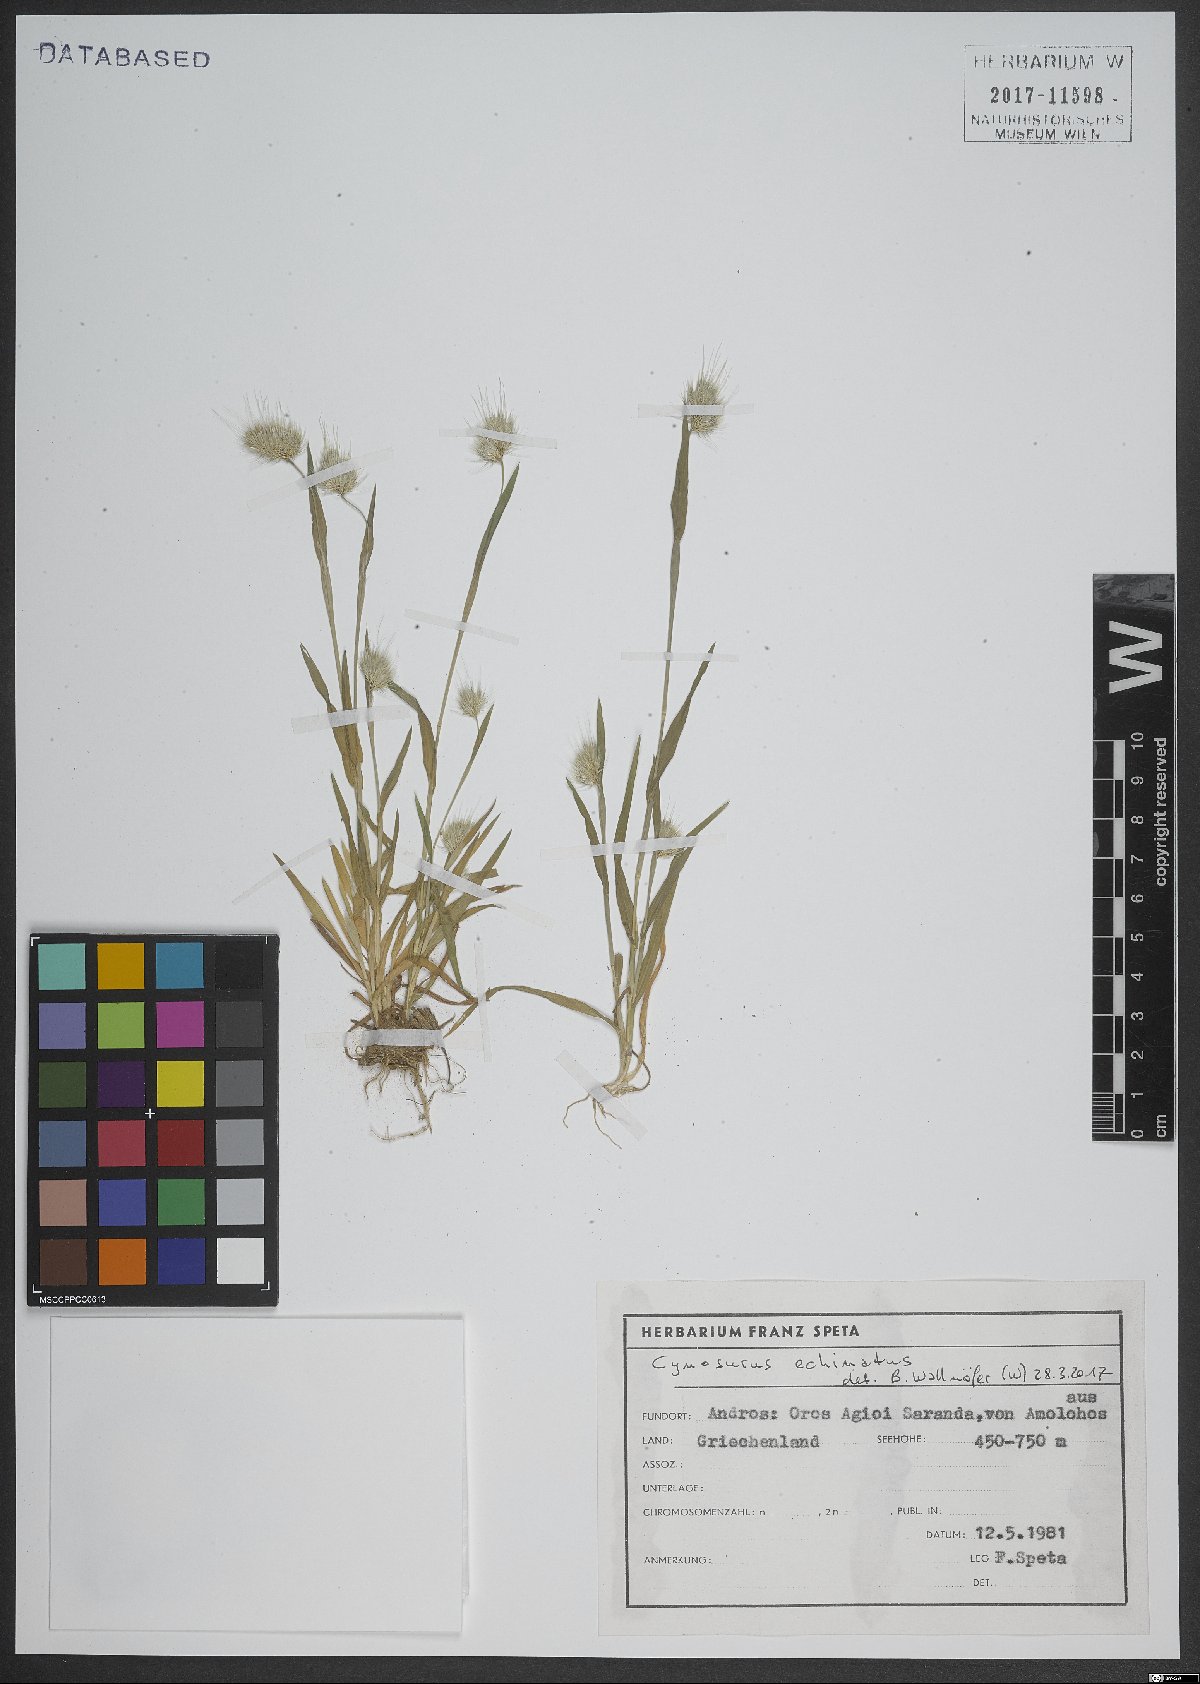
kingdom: Plantae
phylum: Tracheophyta
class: Liliopsida
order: Poales
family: Poaceae
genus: Cynosurus
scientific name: Cynosurus echinatus
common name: Rough dog's-tail
